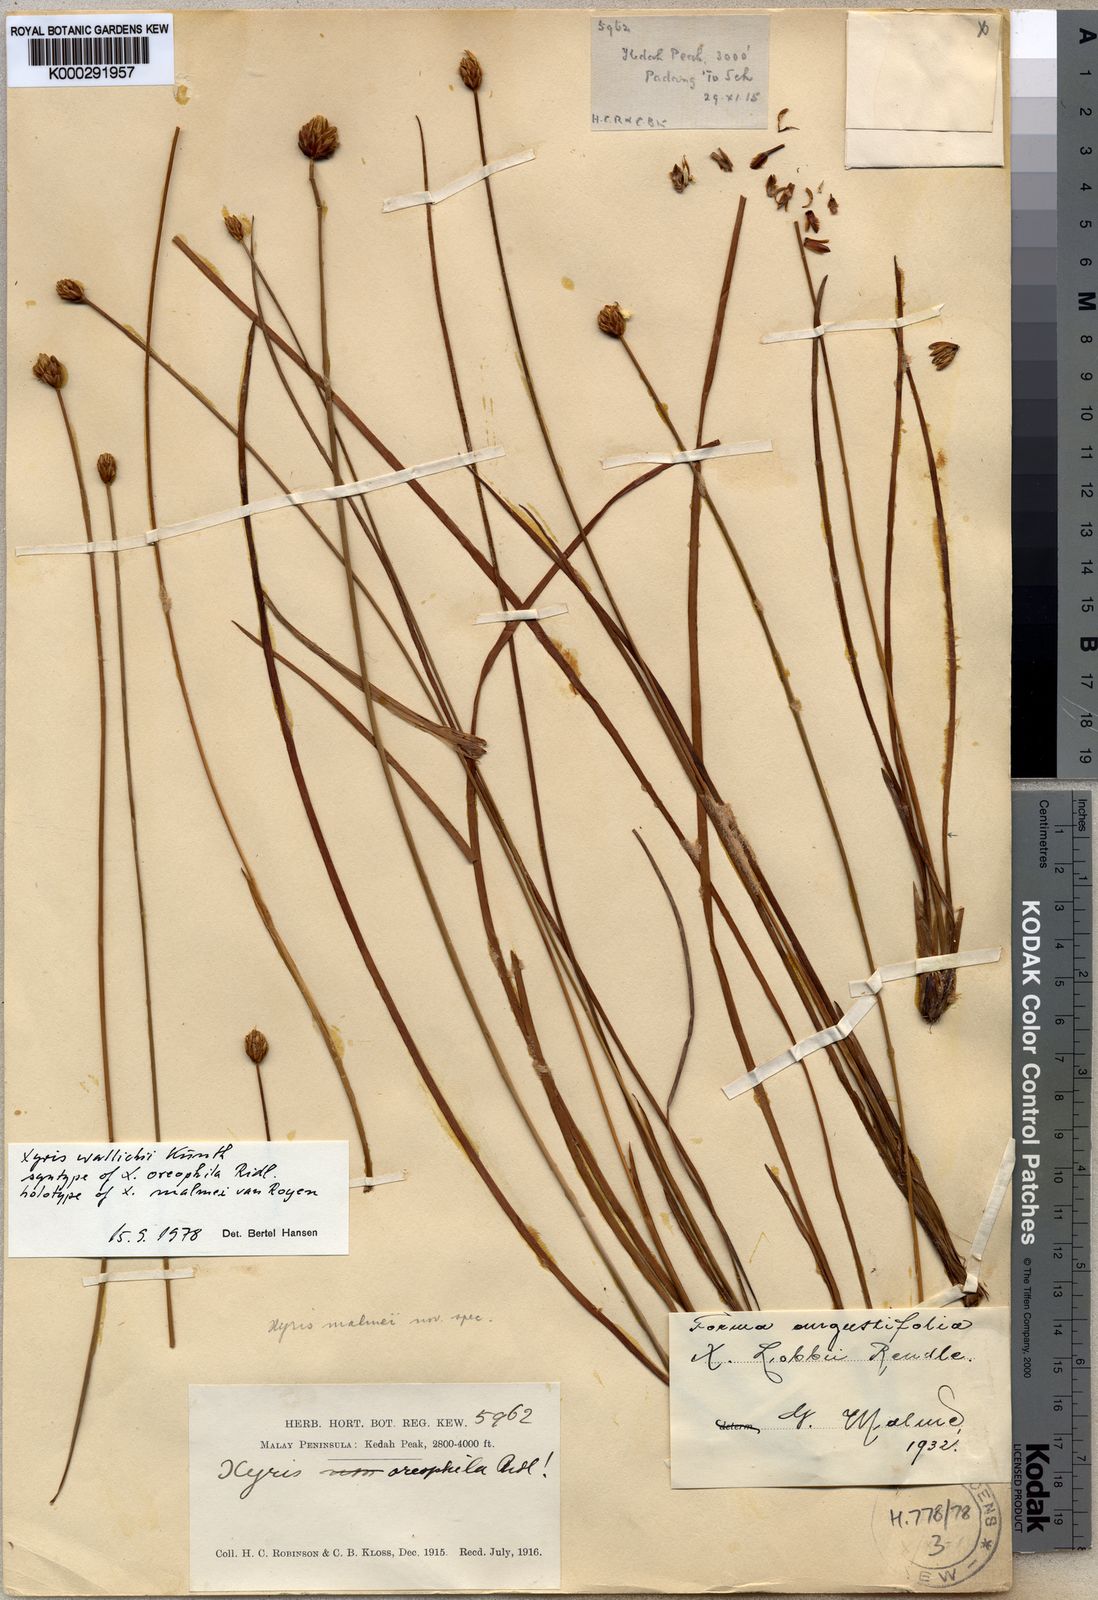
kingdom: Plantae
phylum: Tracheophyta
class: Liliopsida
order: Poales
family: Xyridaceae
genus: Xyris
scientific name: Xyris wallichii
